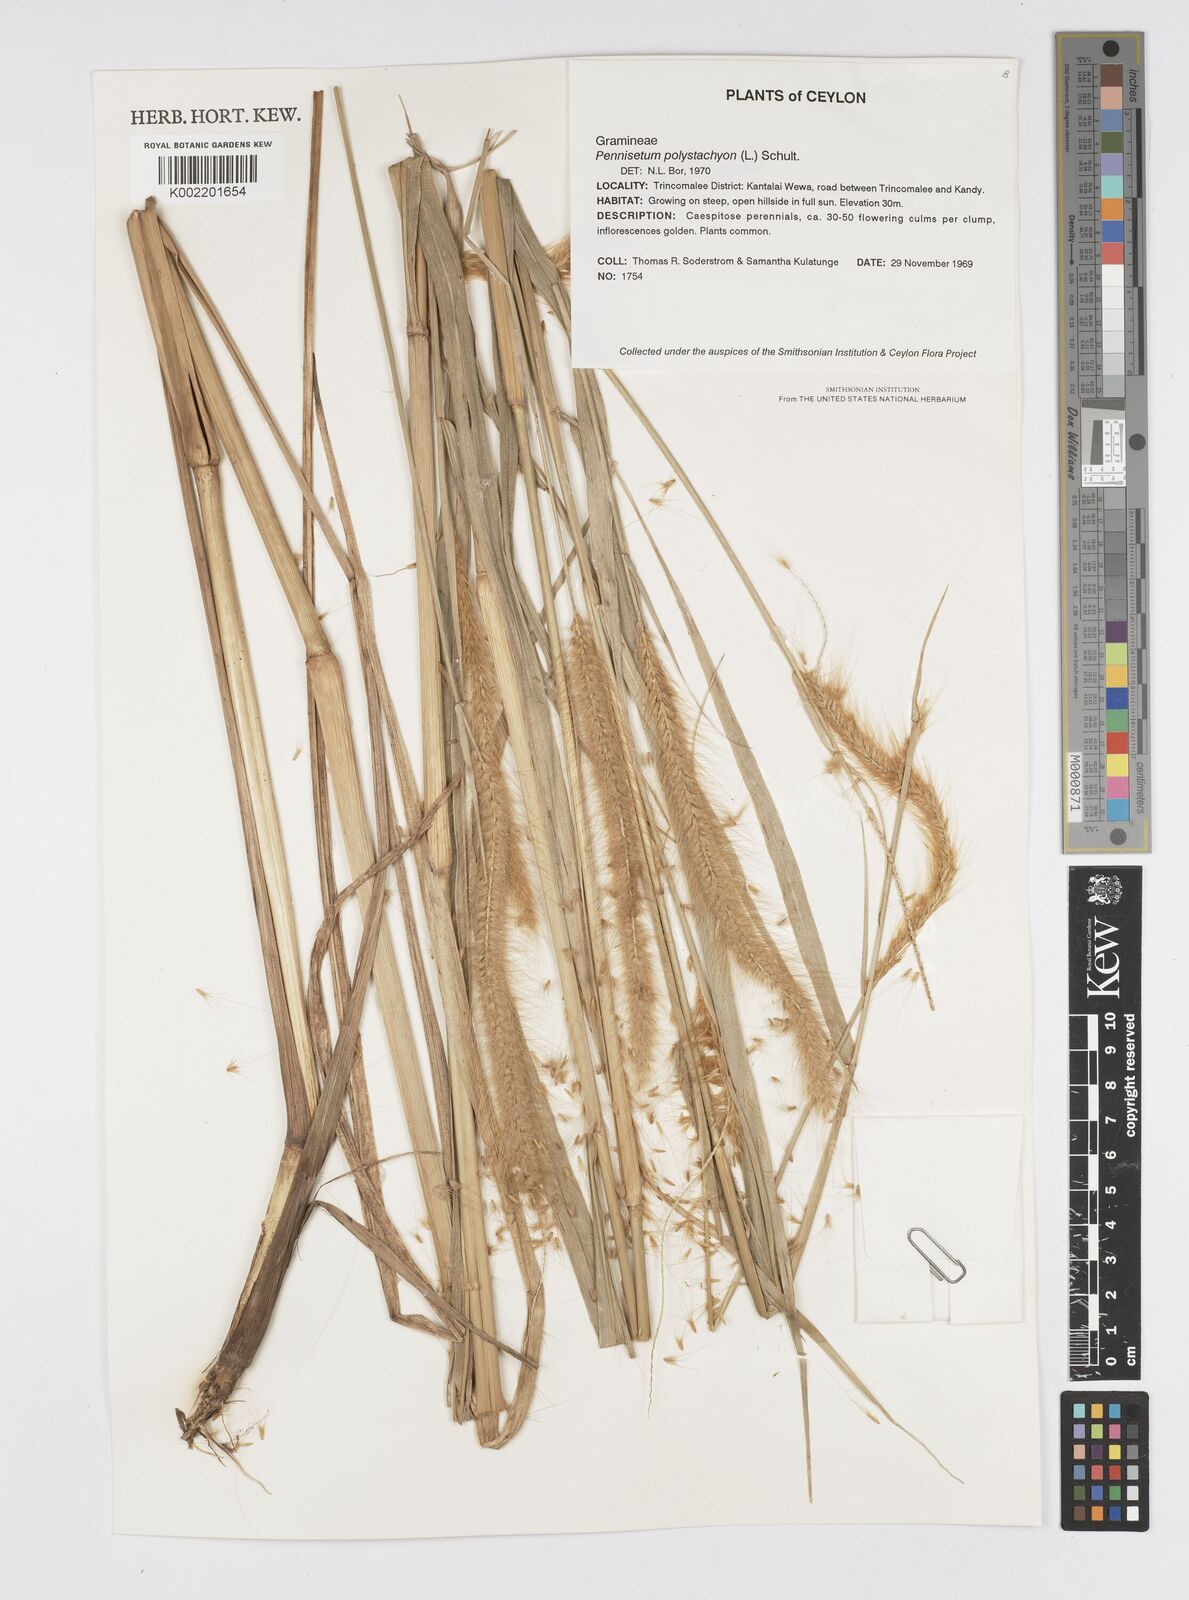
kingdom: Plantae
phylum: Tracheophyta
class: Liliopsida
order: Poales
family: Poaceae
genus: Setaria
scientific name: Setaria parviflora
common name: Knotroot bristle-grass
